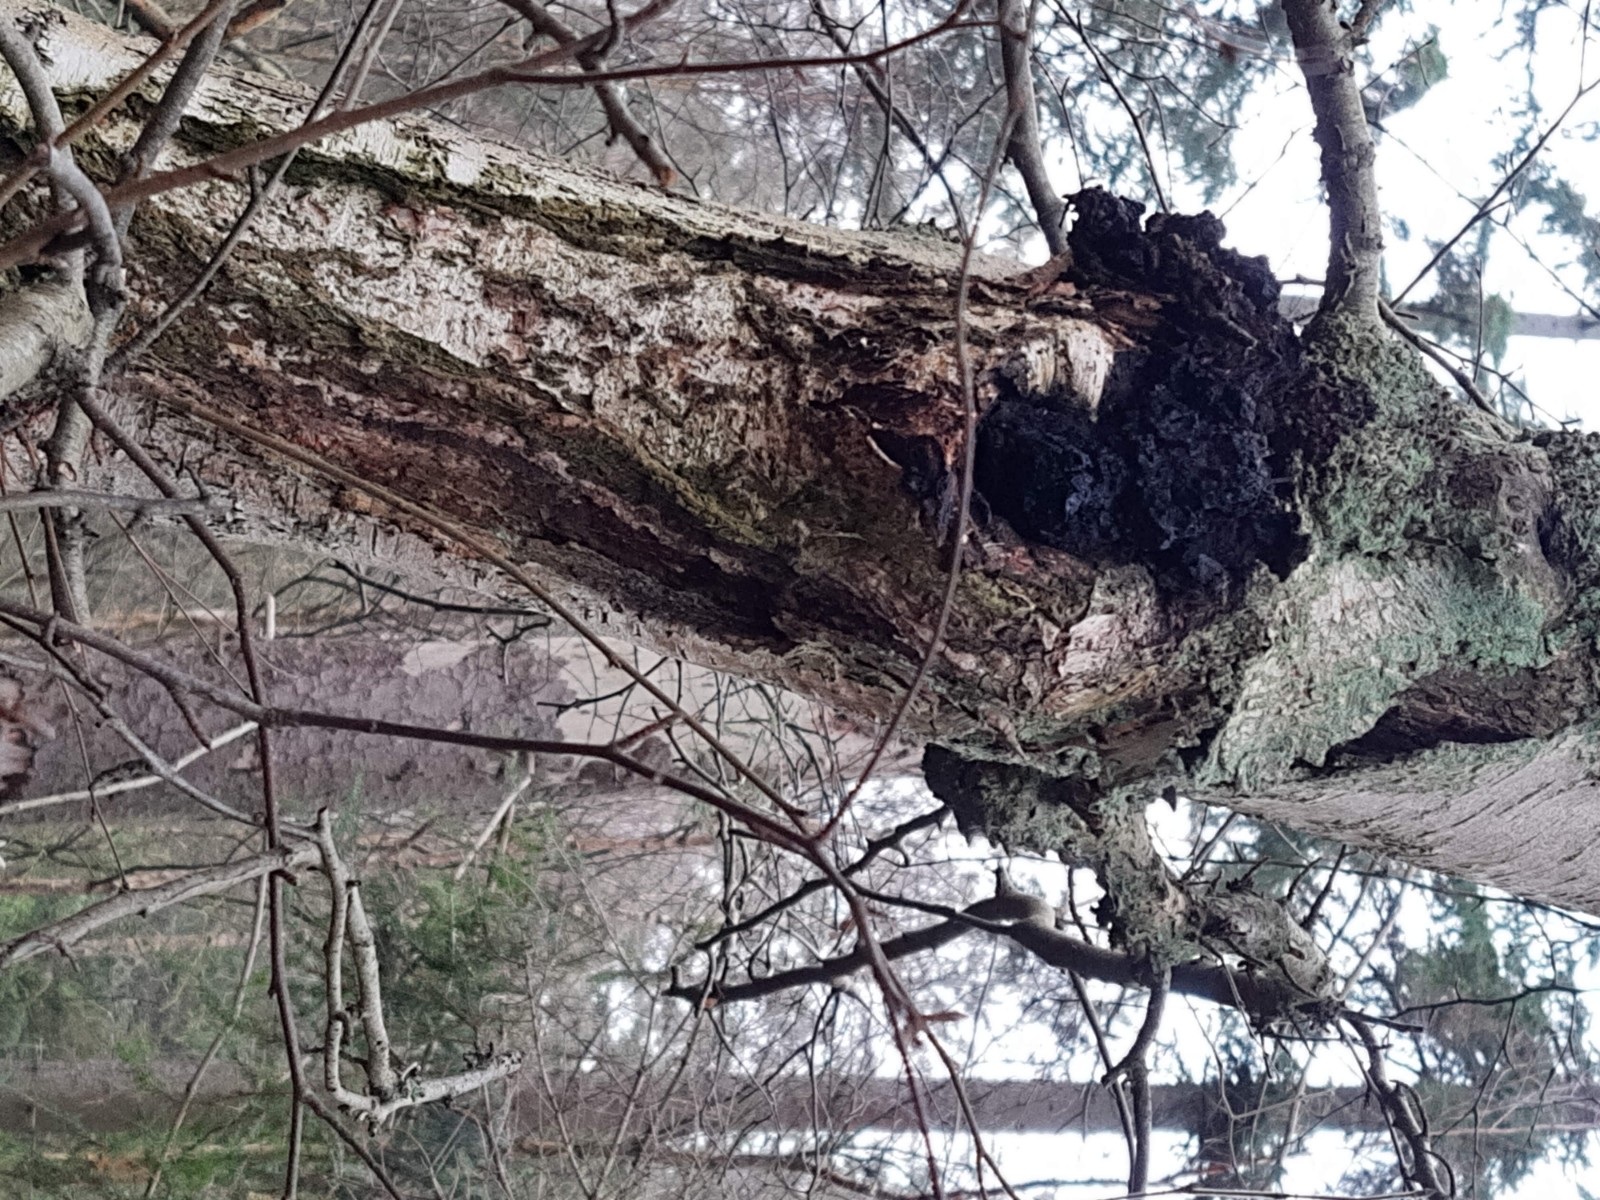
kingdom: Fungi
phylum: Basidiomycota
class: Agaricomycetes
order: Hymenochaetales
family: Hymenochaetaceae
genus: Inonotus
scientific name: Inonotus obliquus
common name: birke-spejlporesvamp
